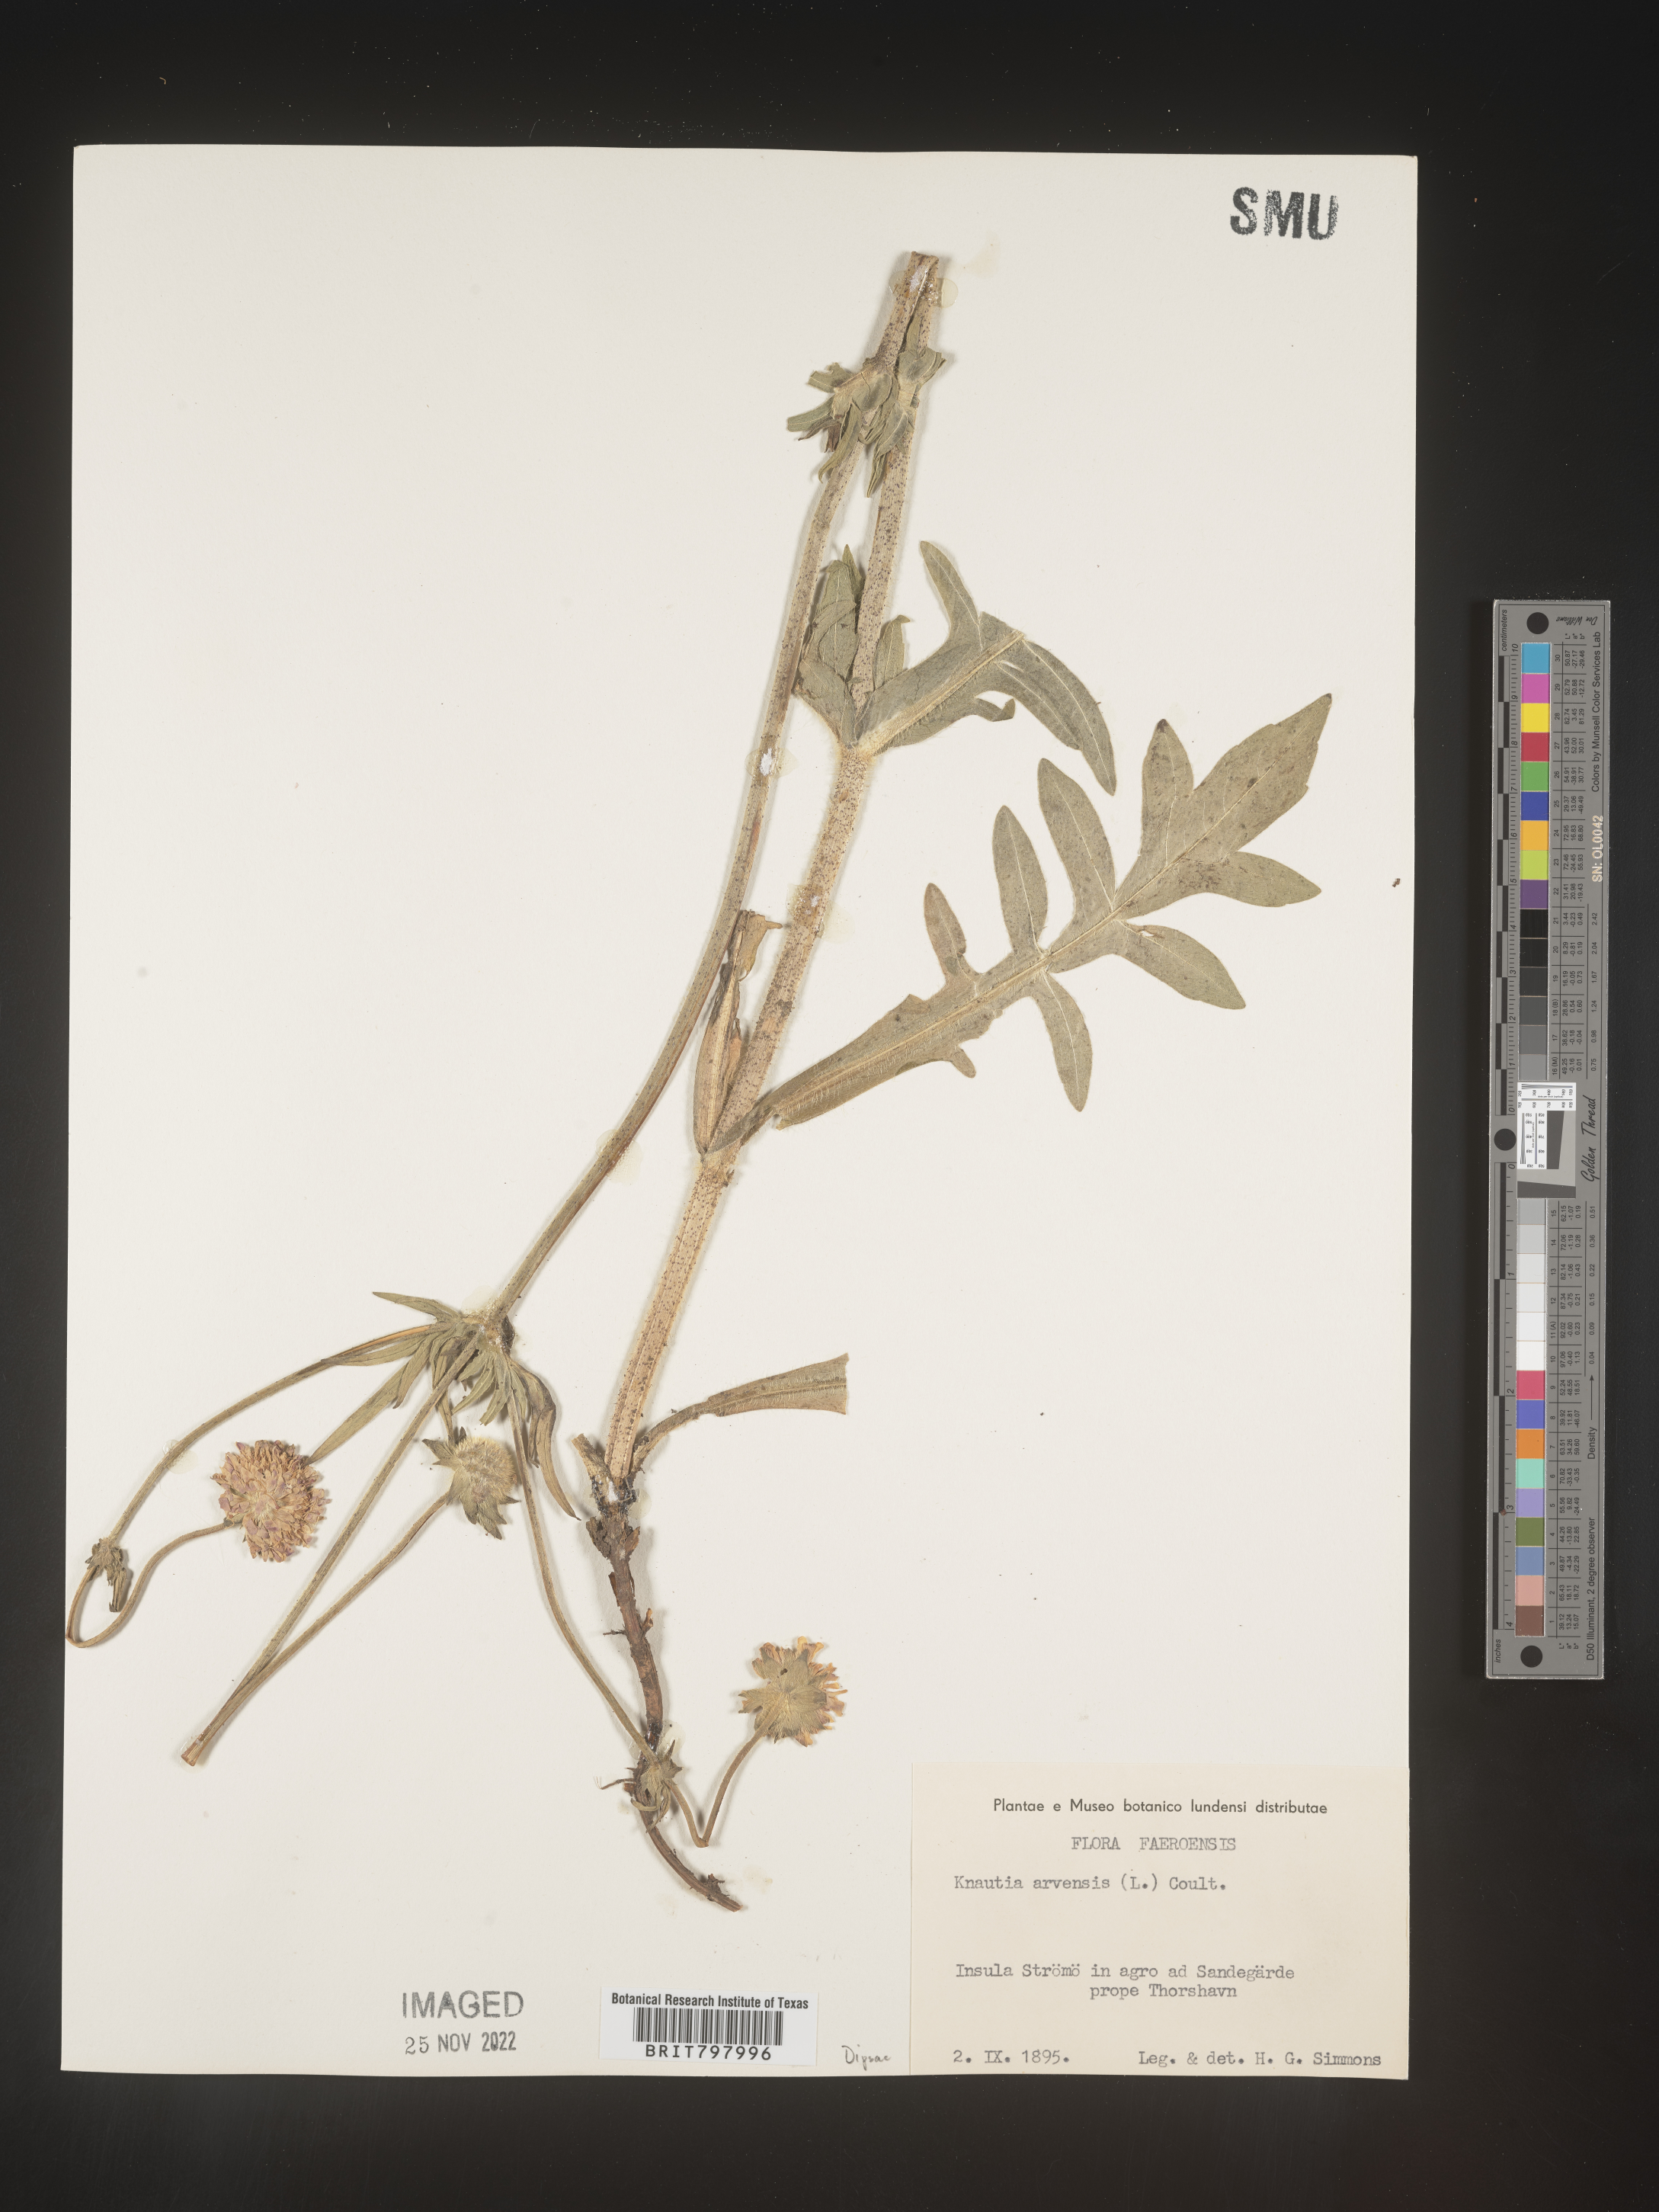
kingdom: Plantae
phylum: Tracheophyta
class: Magnoliopsida
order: Dipsacales
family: Caprifoliaceae
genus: Knautia
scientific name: Knautia
